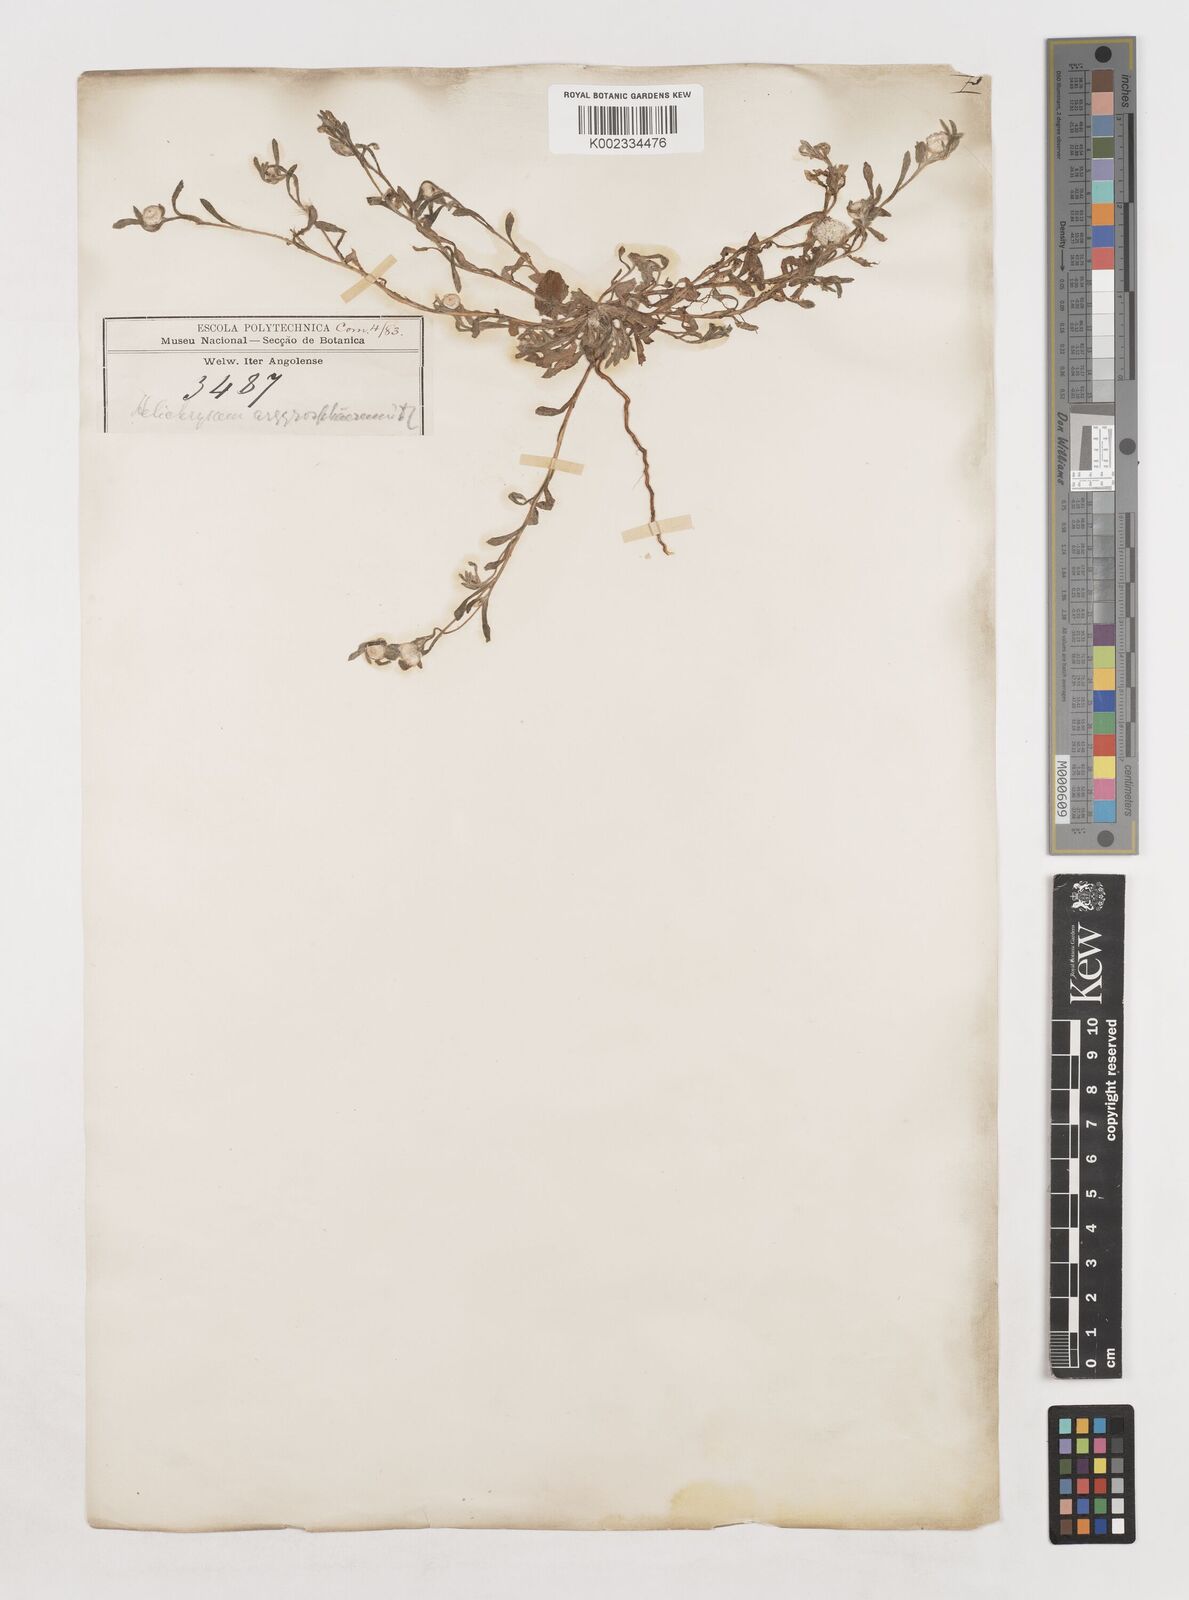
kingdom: Plantae
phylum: Tracheophyta
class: Magnoliopsida
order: Asterales
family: Asteraceae
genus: Helichrysum
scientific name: Helichrysum argyrosphaerum
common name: Wild everlasting
